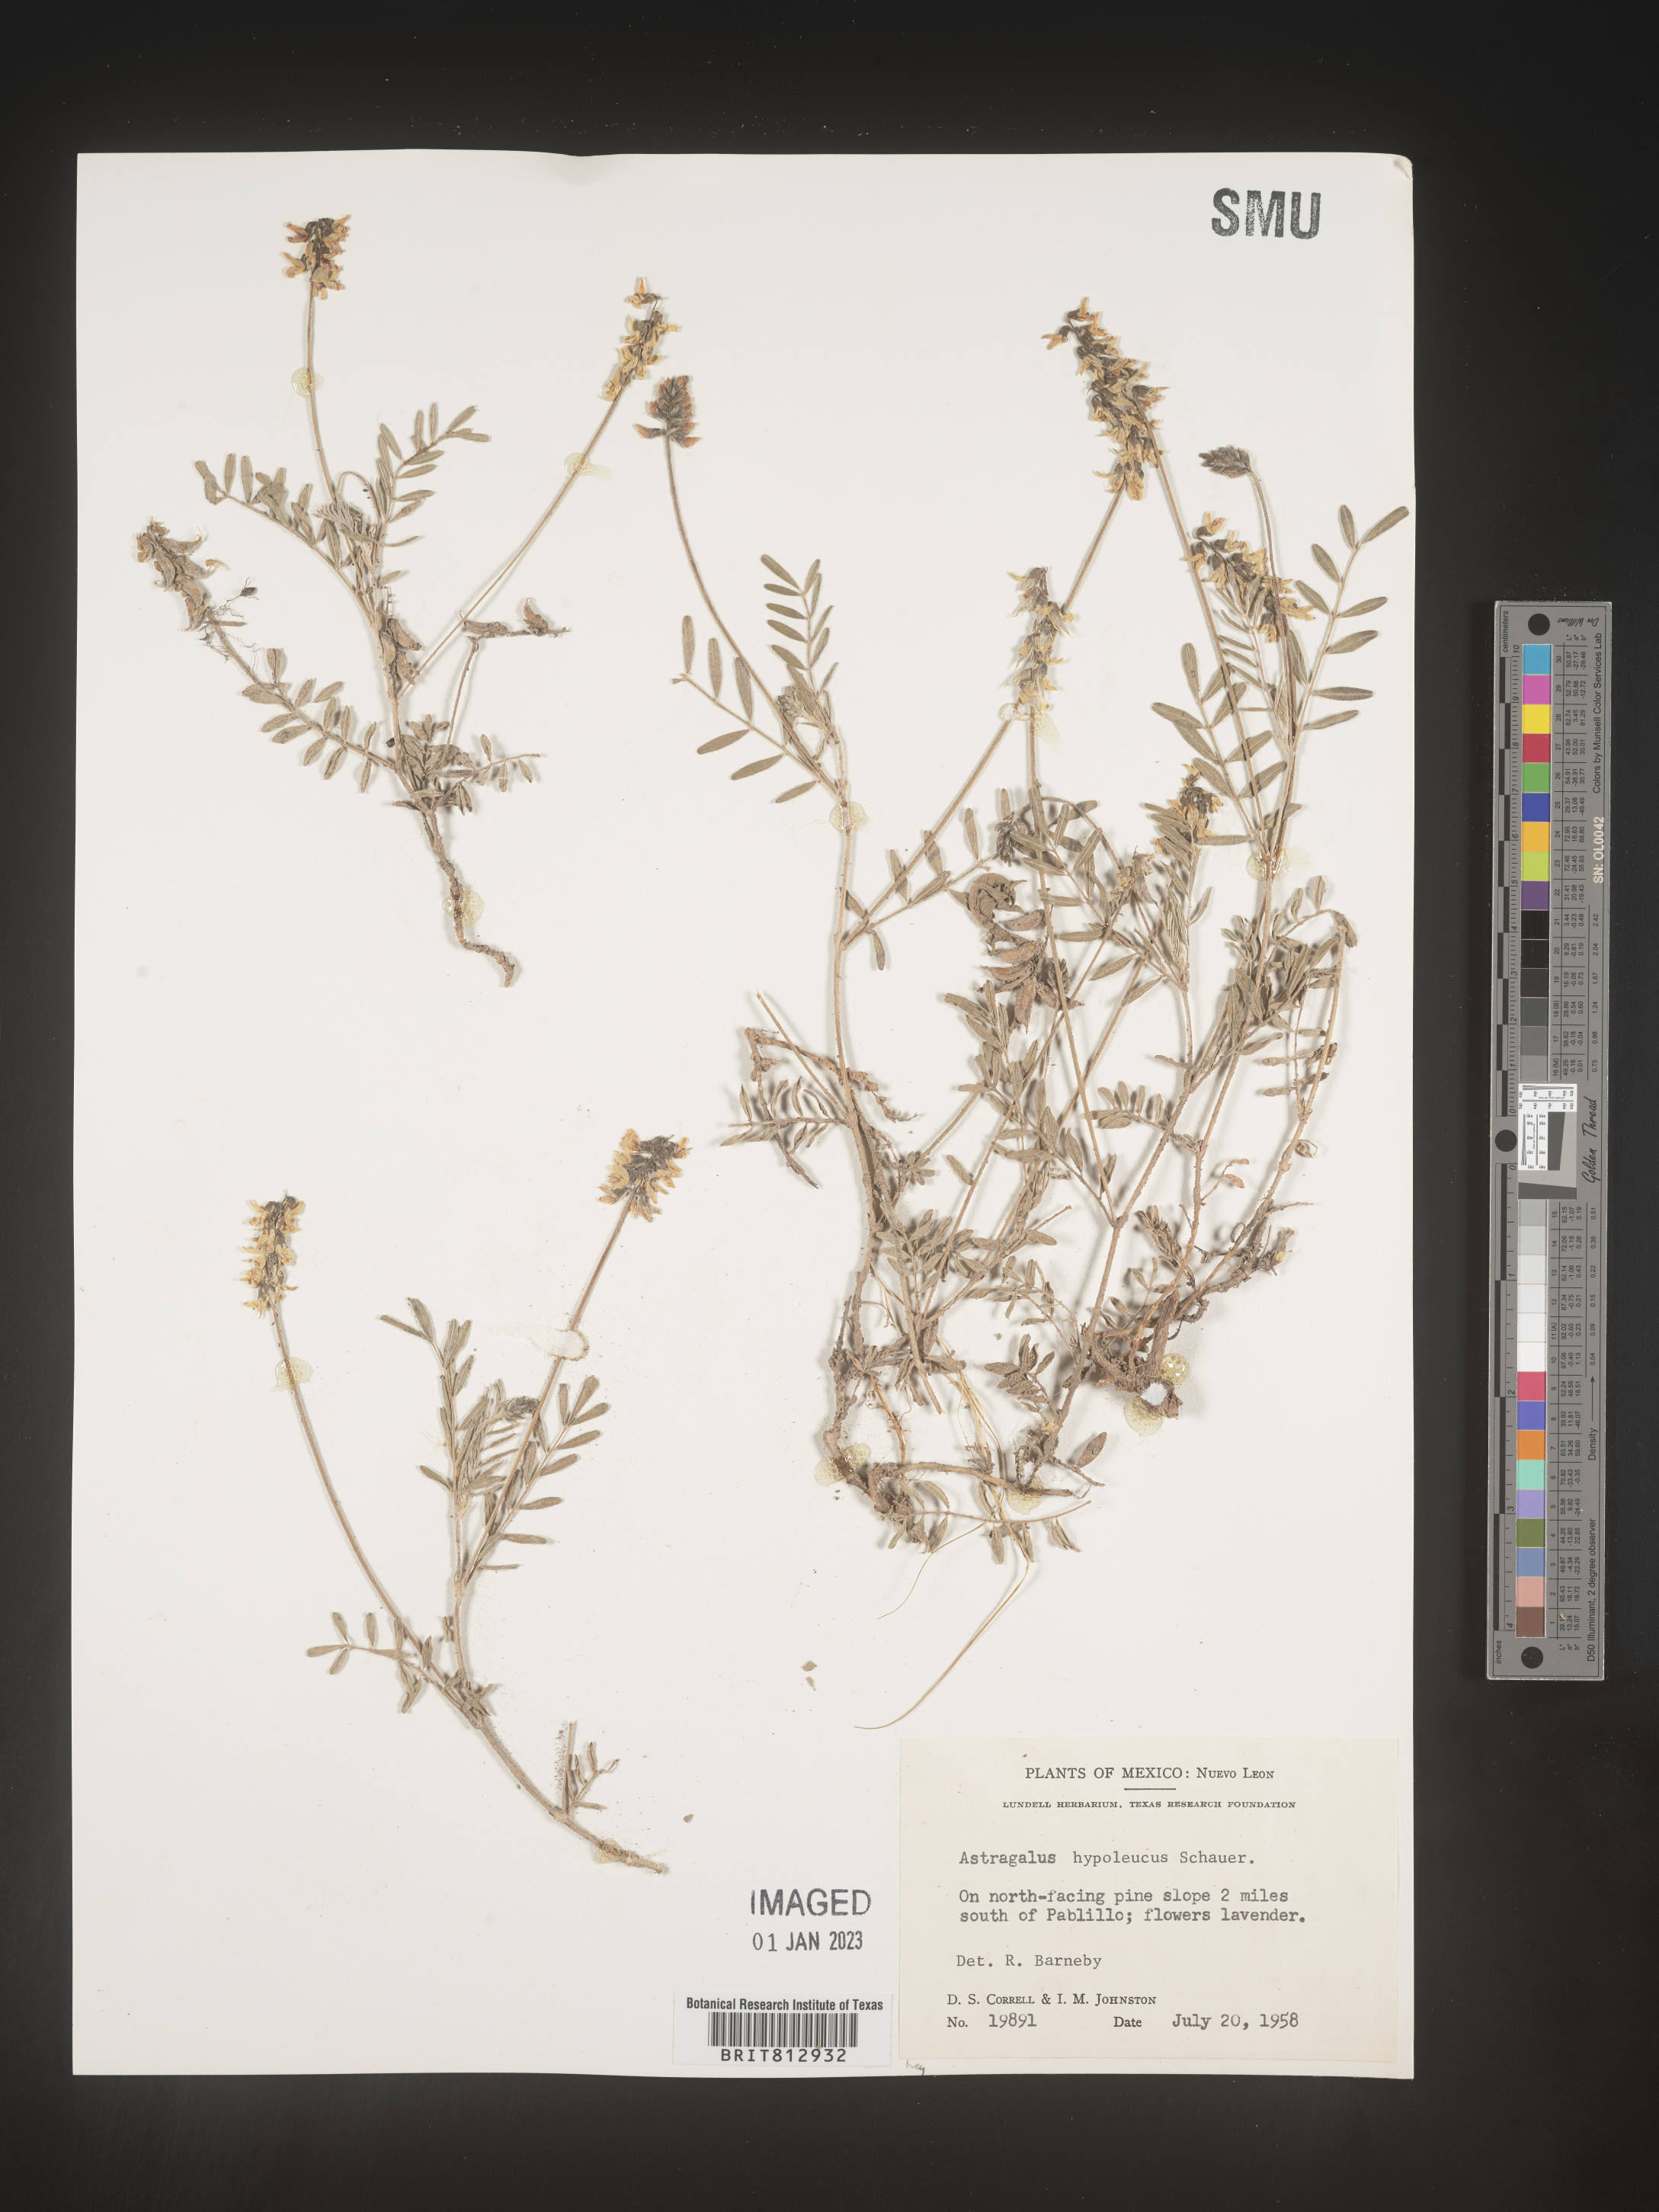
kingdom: Plantae
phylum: Tracheophyta
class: Magnoliopsida
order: Fabales
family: Fabaceae
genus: Astragalus
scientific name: Astragalus
